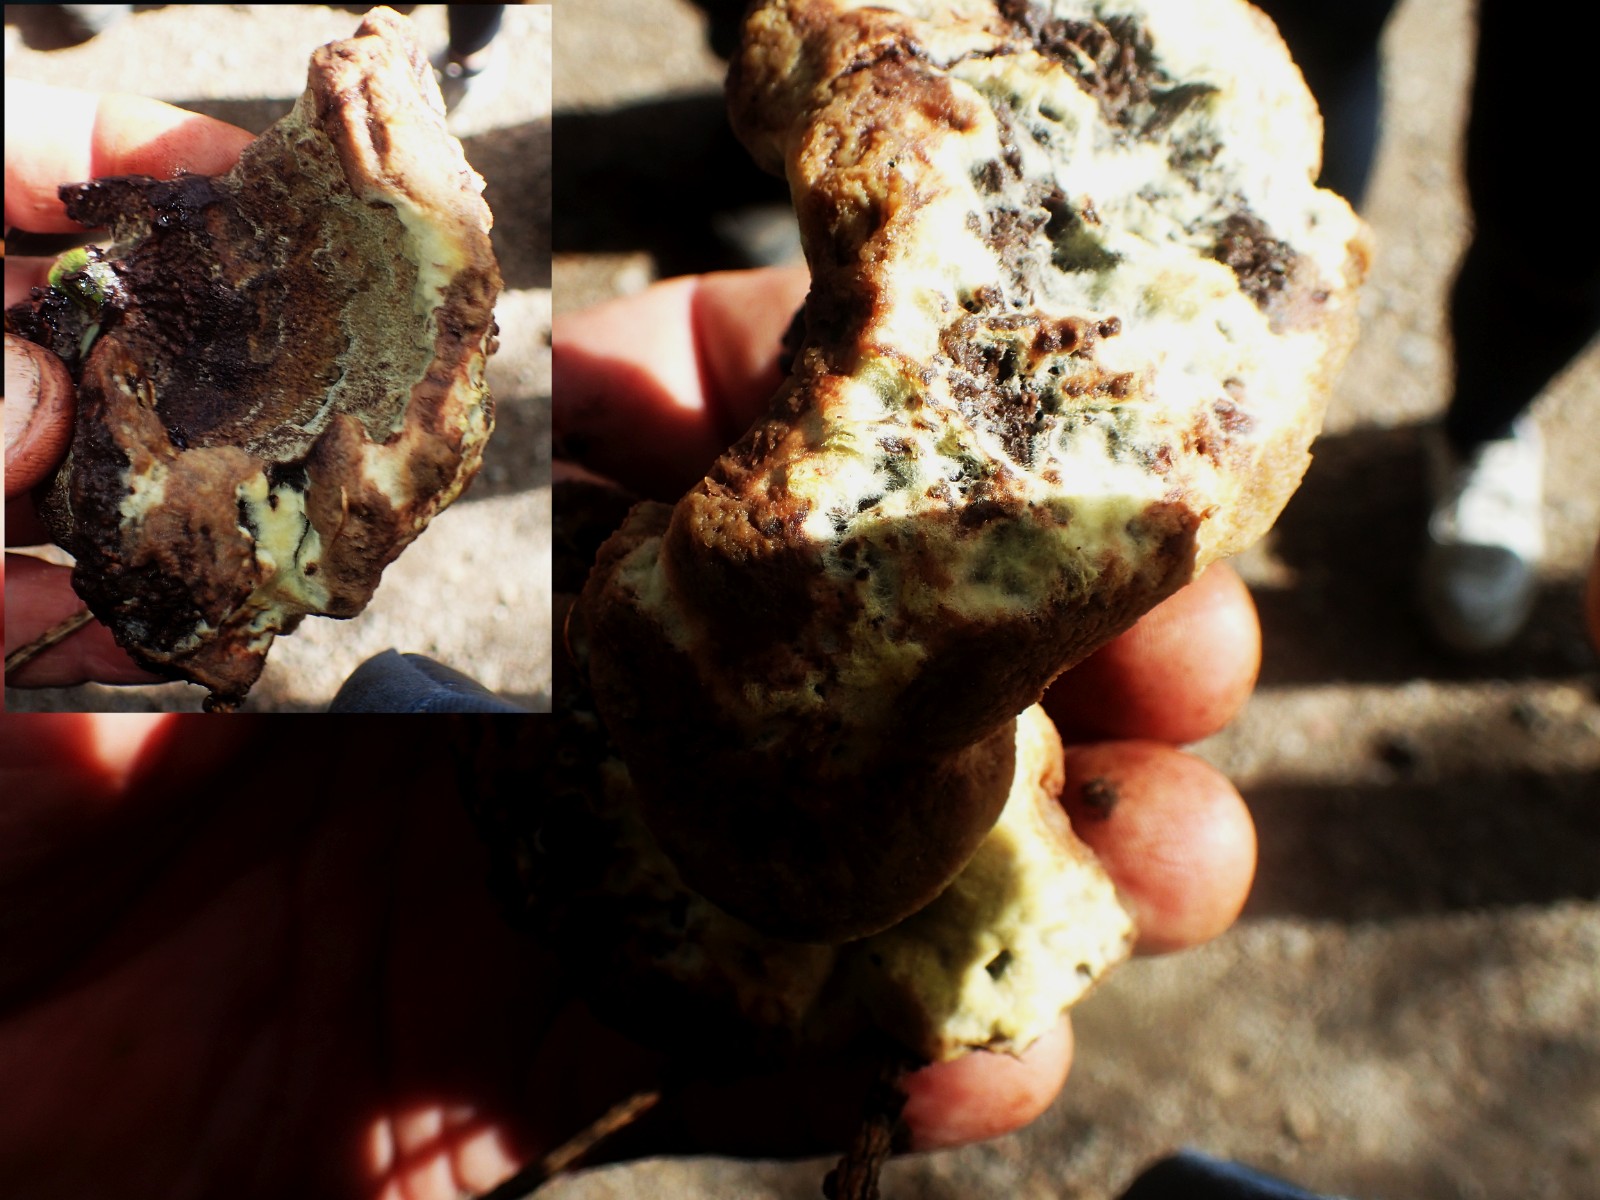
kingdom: Fungi
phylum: Basidiomycota
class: Agaricomycetes
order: Polyporales
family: Laetiporaceae
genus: Phaeolus
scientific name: Phaeolus schweinitzii
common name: brunporesvamp
